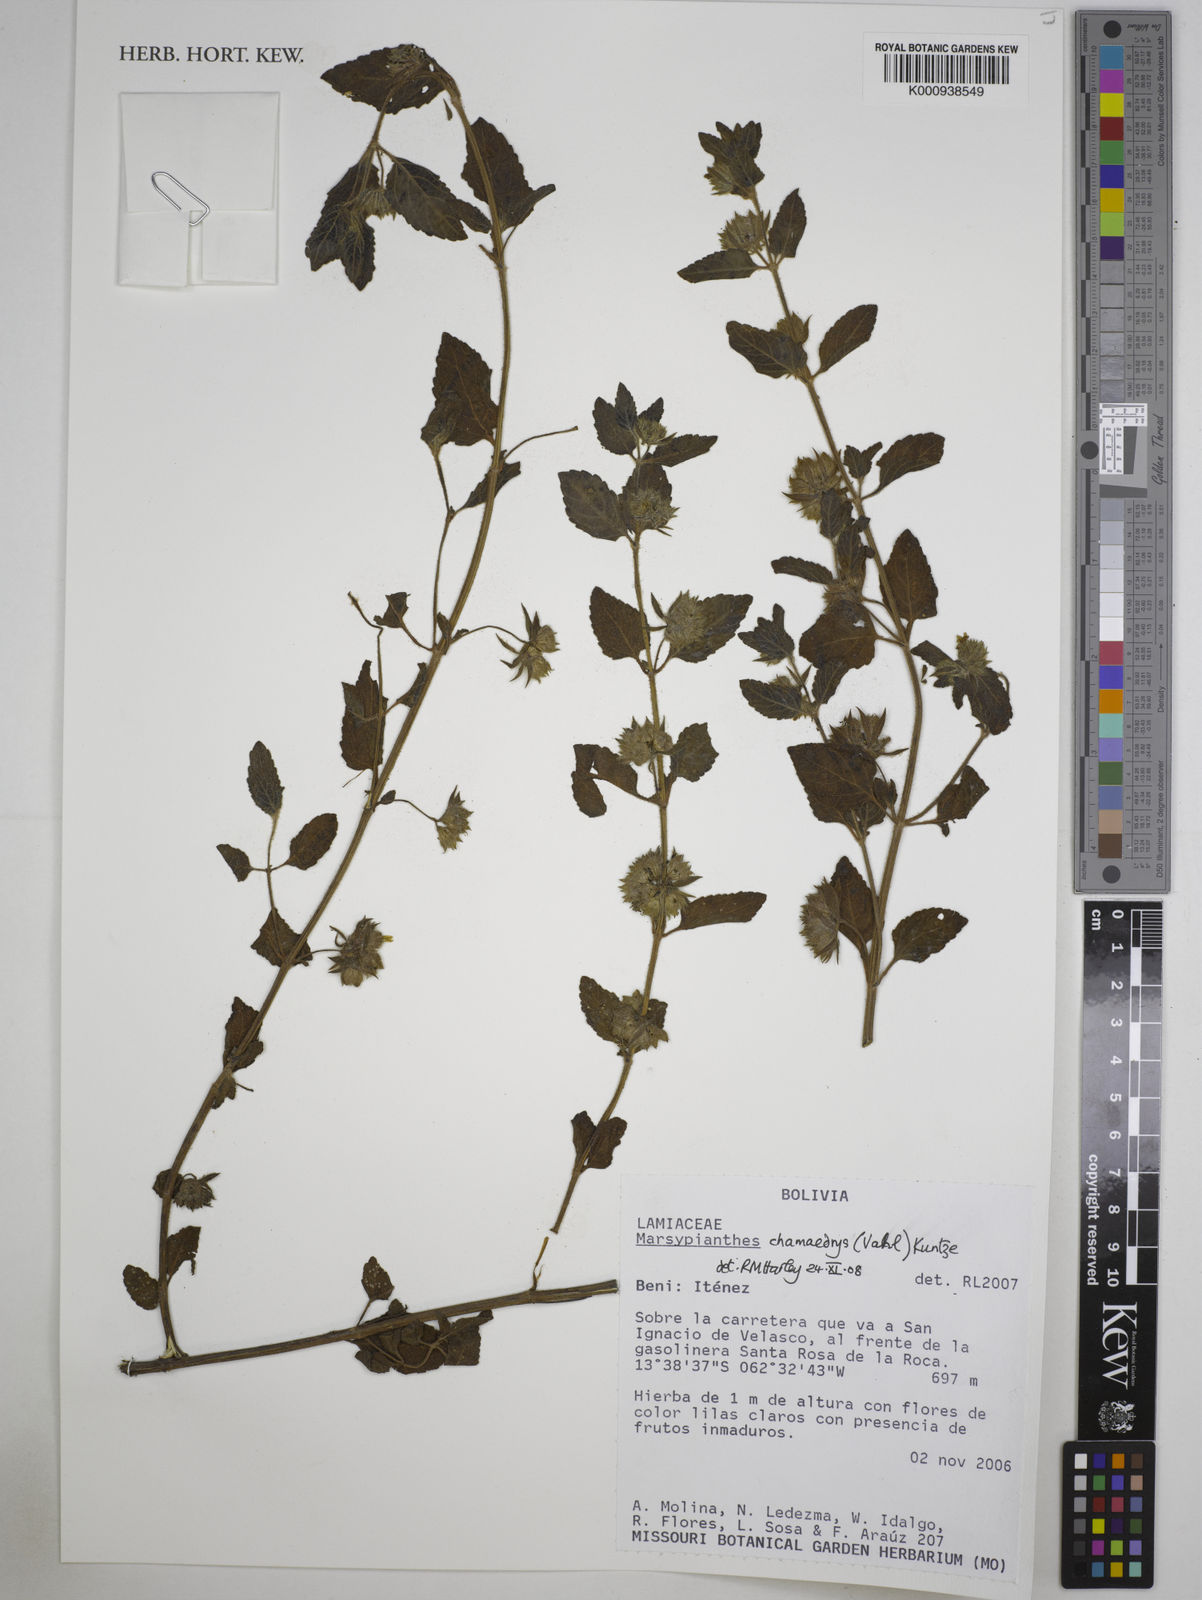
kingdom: Plantae
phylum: Tracheophyta
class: Magnoliopsida
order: Lamiales
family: Lamiaceae
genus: Marsypianthes
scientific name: Marsypianthes chamaedrys
